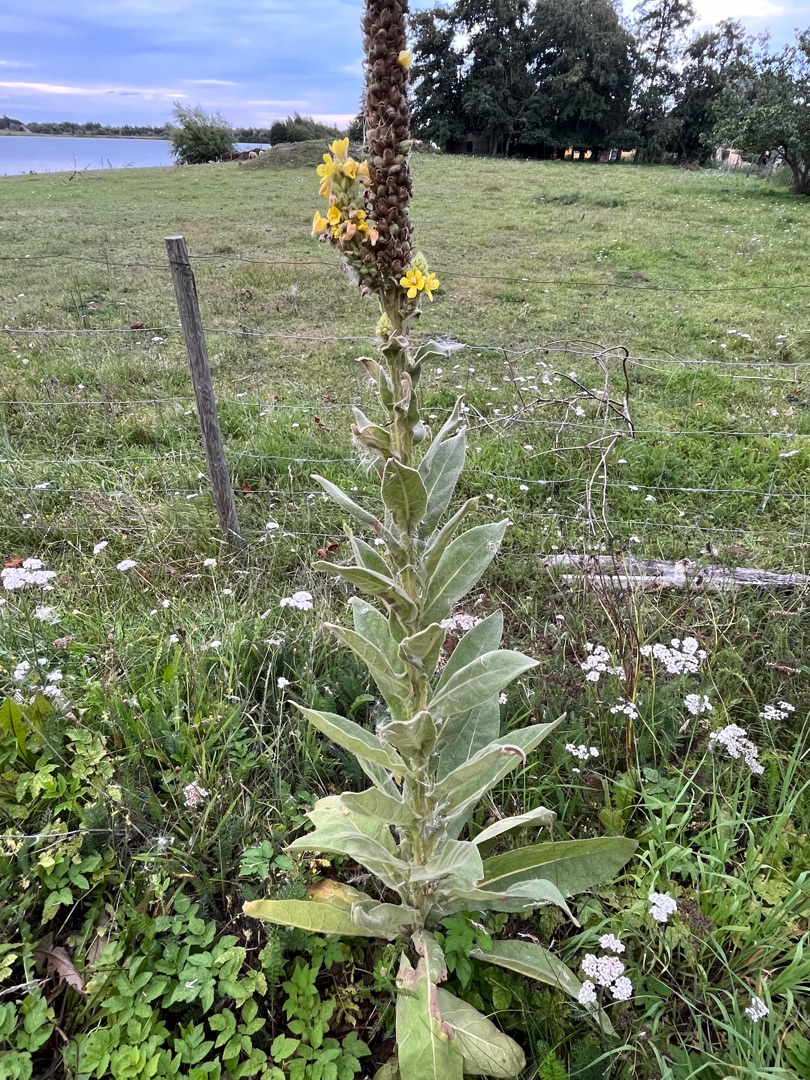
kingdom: Plantae
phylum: Tracheophyta
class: Magnoliopsida
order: Lamiales
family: Scrophulariaceae
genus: Verbascum
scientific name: Verbascum densiflorum
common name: Uldbladet kongelys
